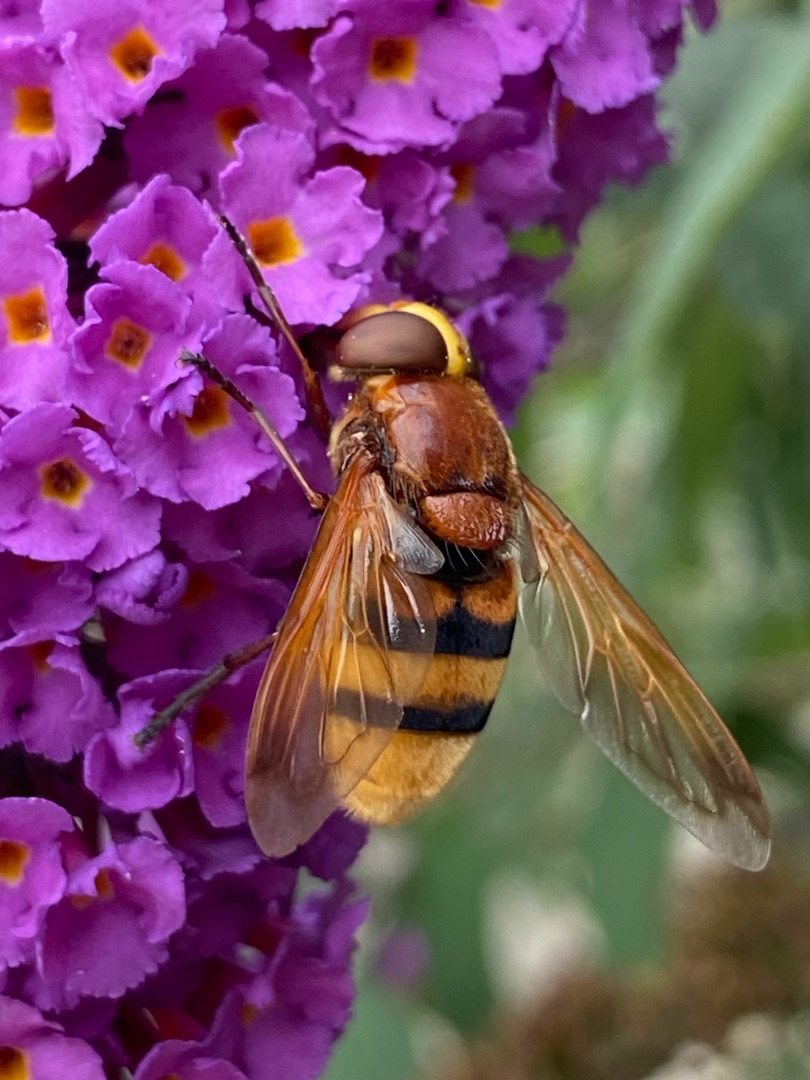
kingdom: Animalia
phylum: Arthropoda
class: Insecta
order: Diptera
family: Syrphidae
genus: Volucella
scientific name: Volucella zonaria
